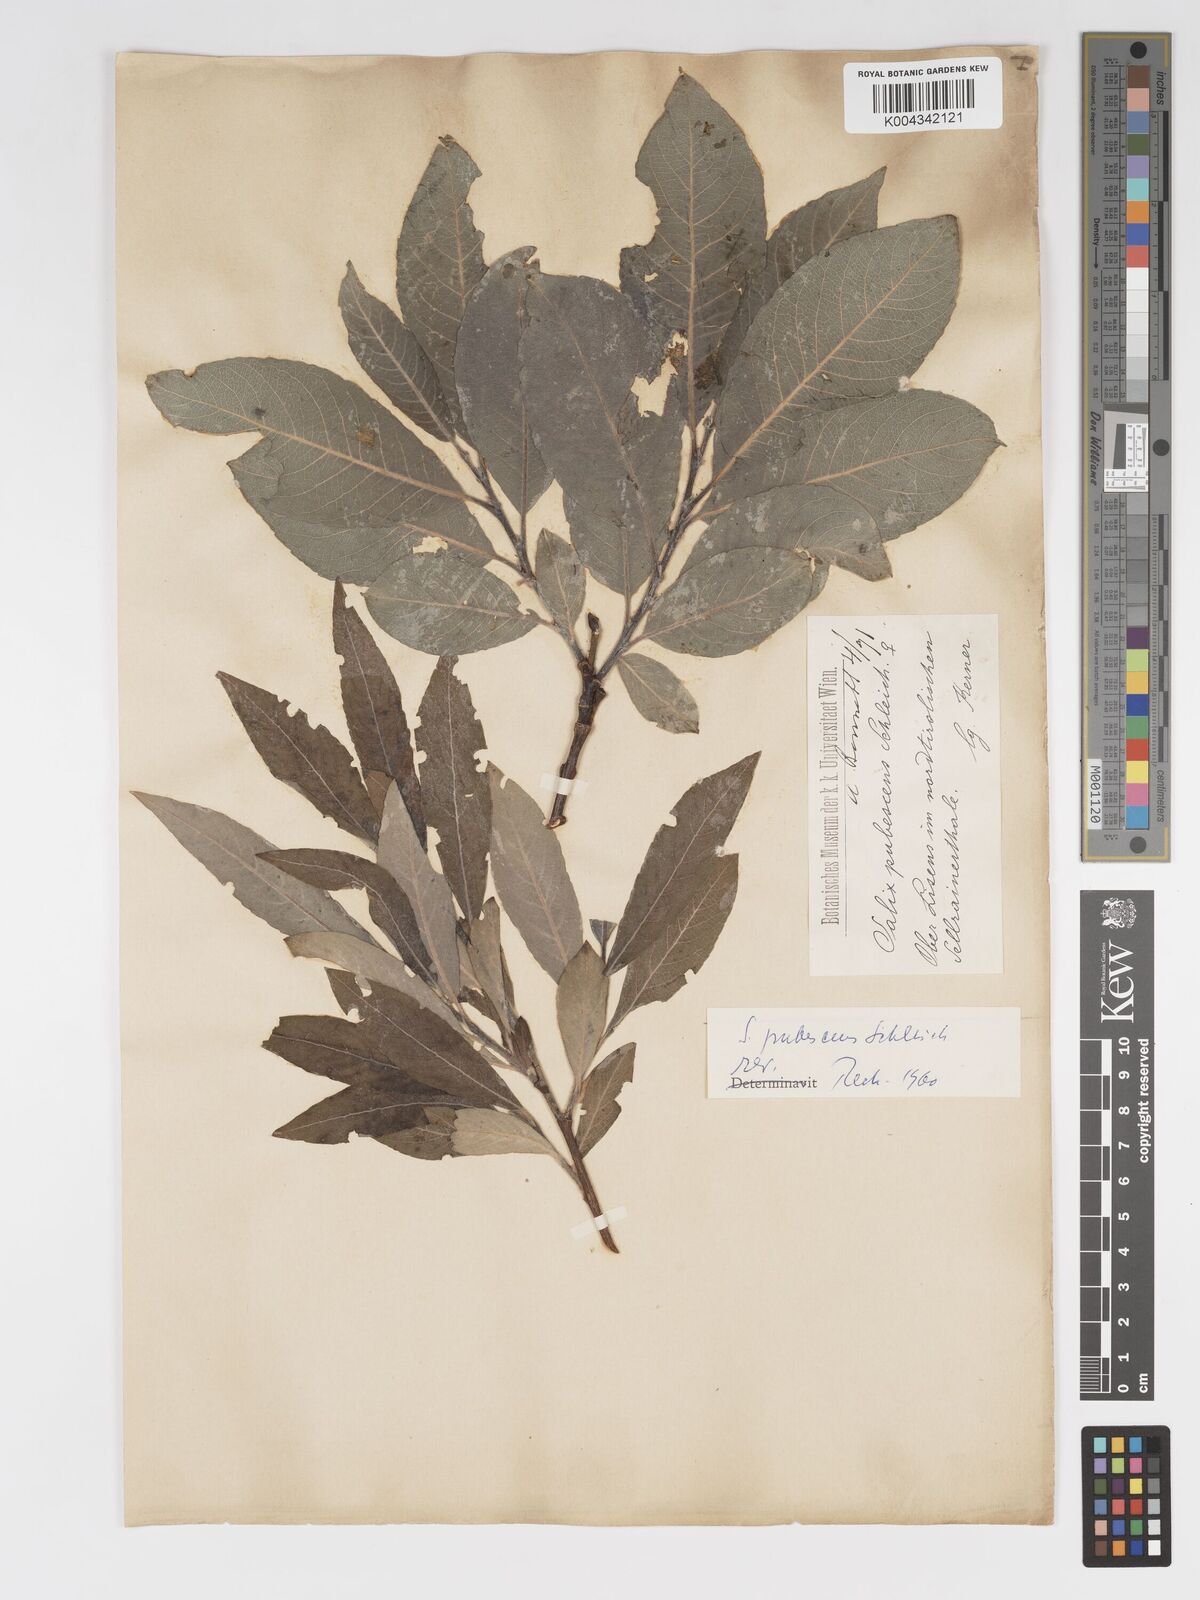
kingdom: Plantae
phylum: Tracheophyta
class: Magnoliopsida
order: Malpighiales
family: Salicaceae
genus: Salix
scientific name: Salix laggeri
